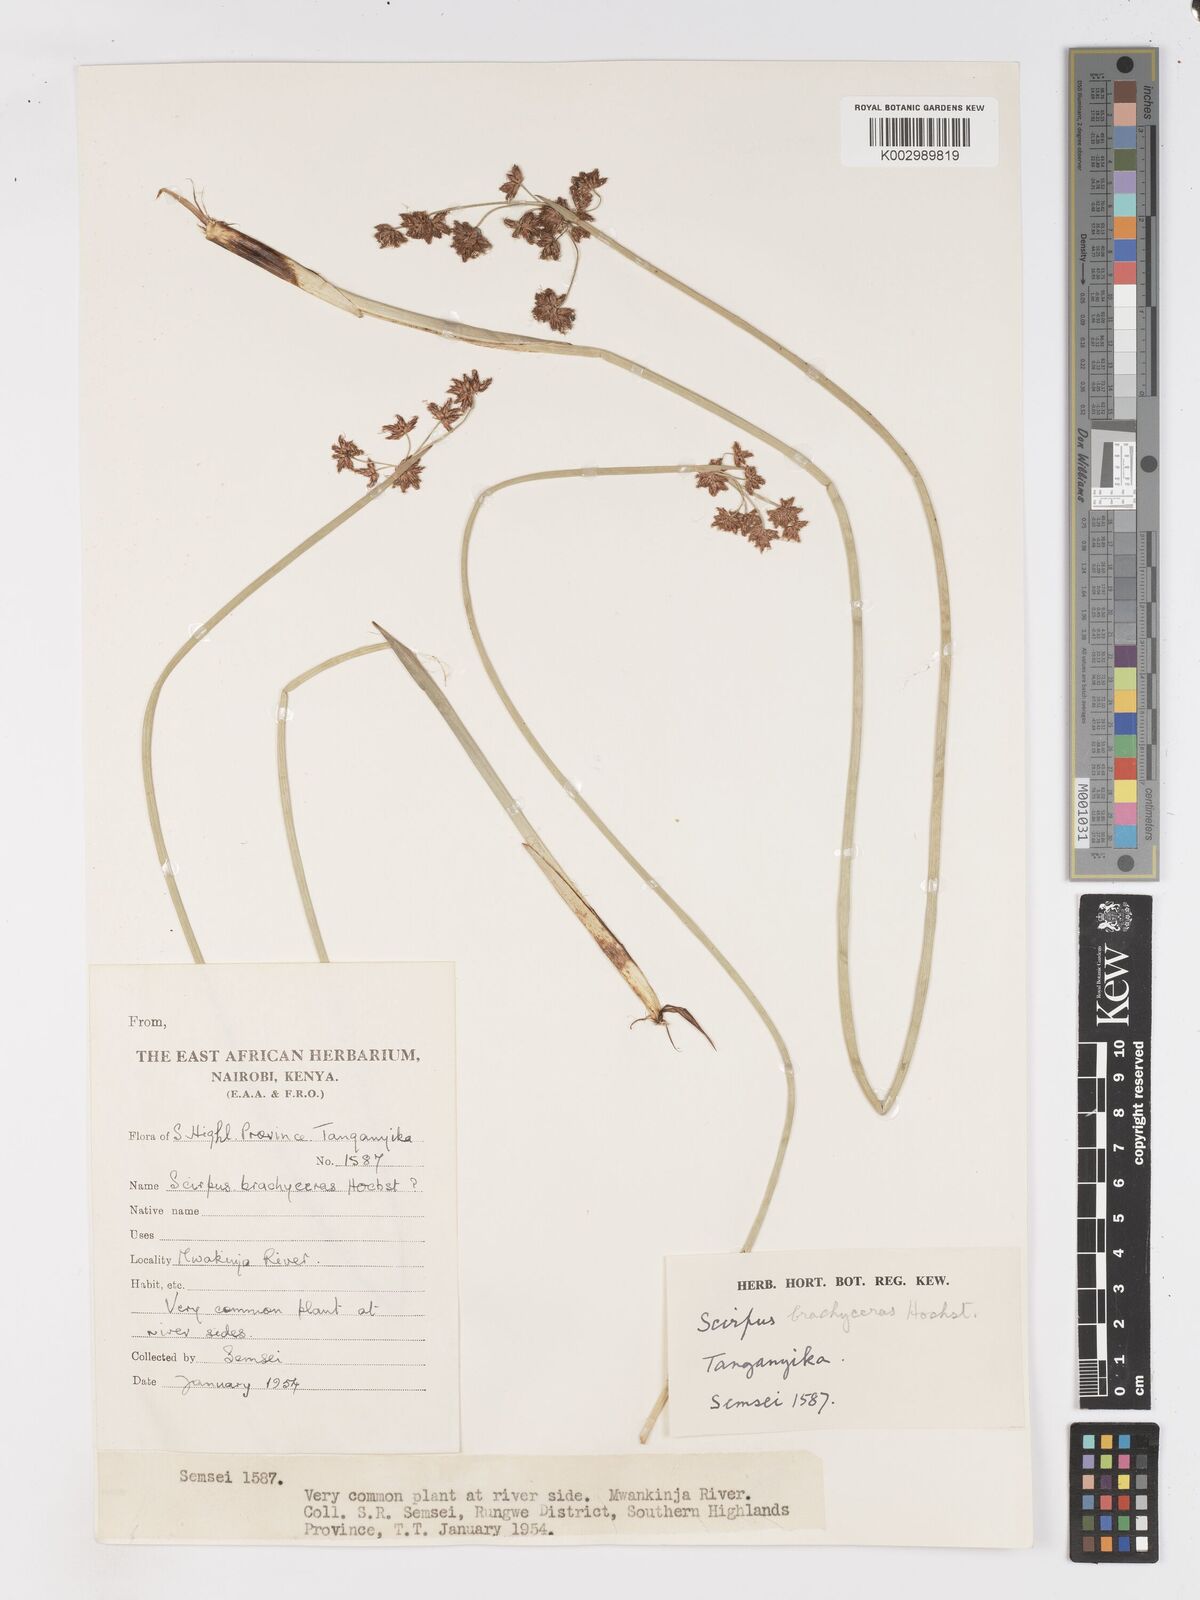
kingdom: Plantae
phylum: Tracheophyta
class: Liliopsida
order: Poales
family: Cyperaceae
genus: Schoenoplectiella
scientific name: Schoenoplectiella brachyceras
